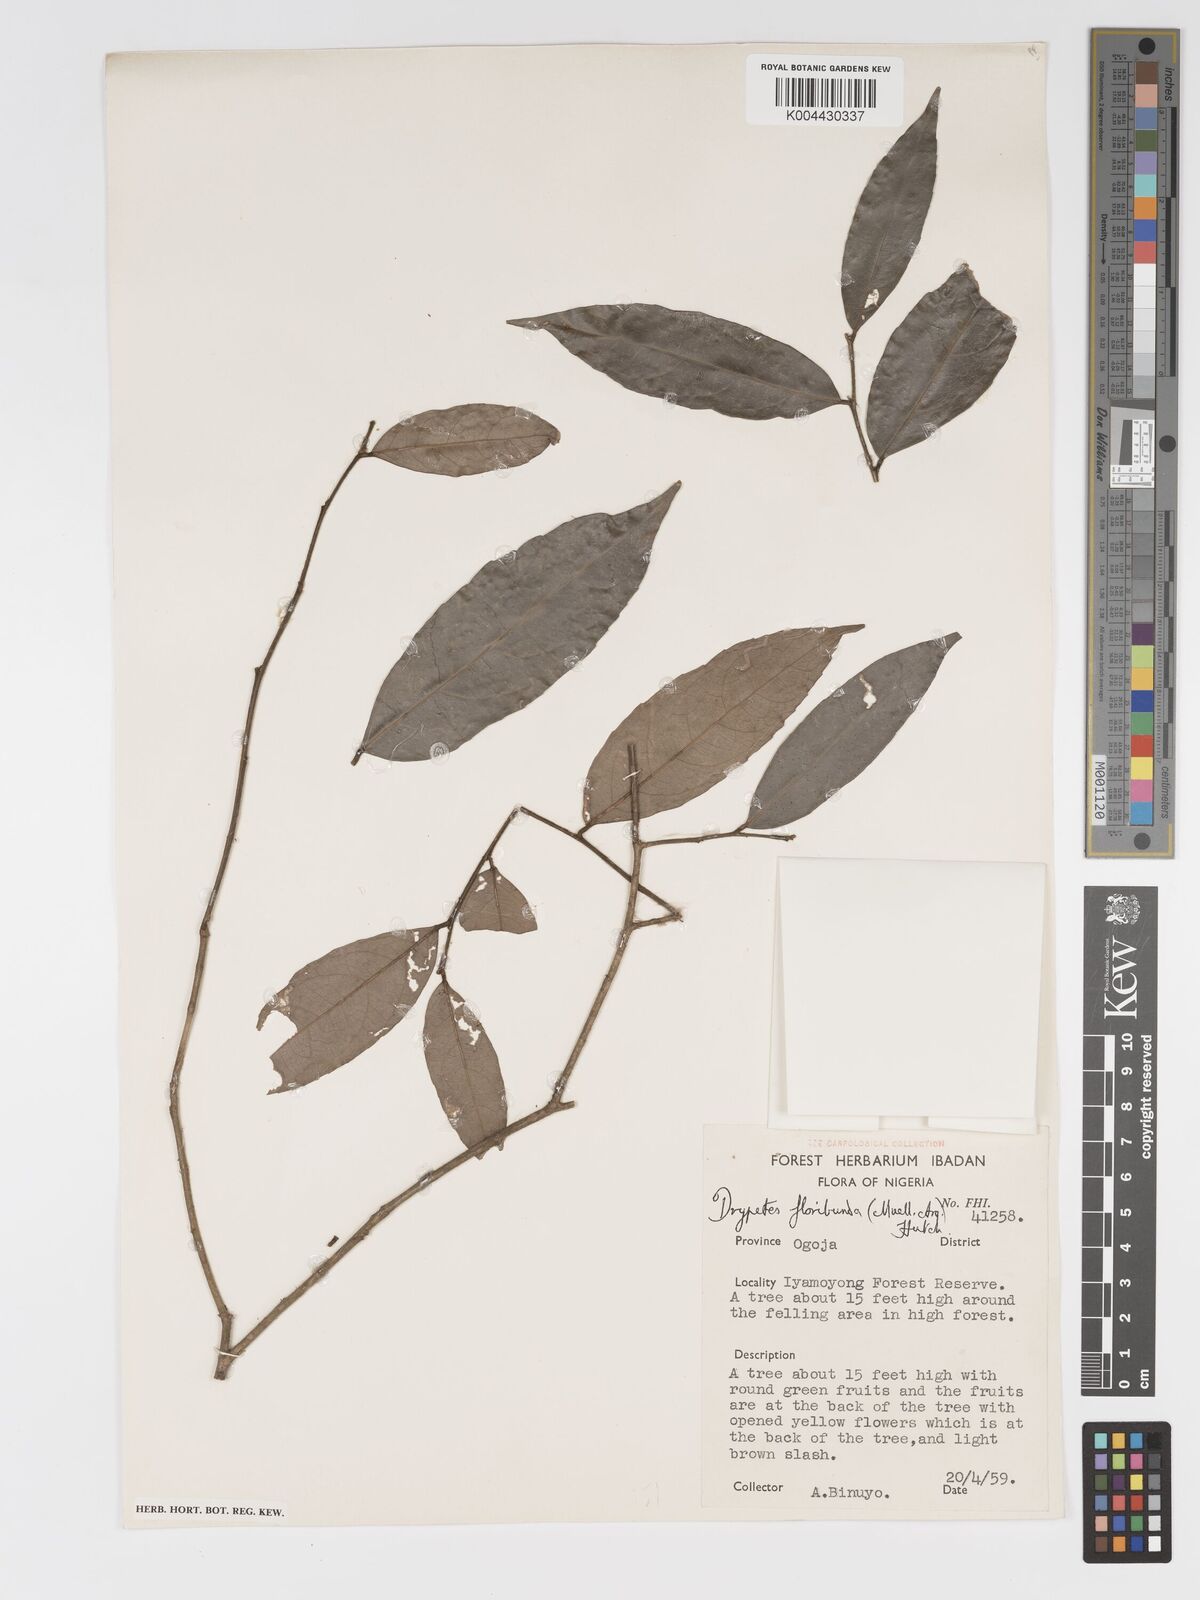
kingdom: Plantae
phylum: Tracheophyta
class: Magnoliopsida
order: Malpighiales
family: Putranjivaceae
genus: Drypetes
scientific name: Drypetes floribunda
